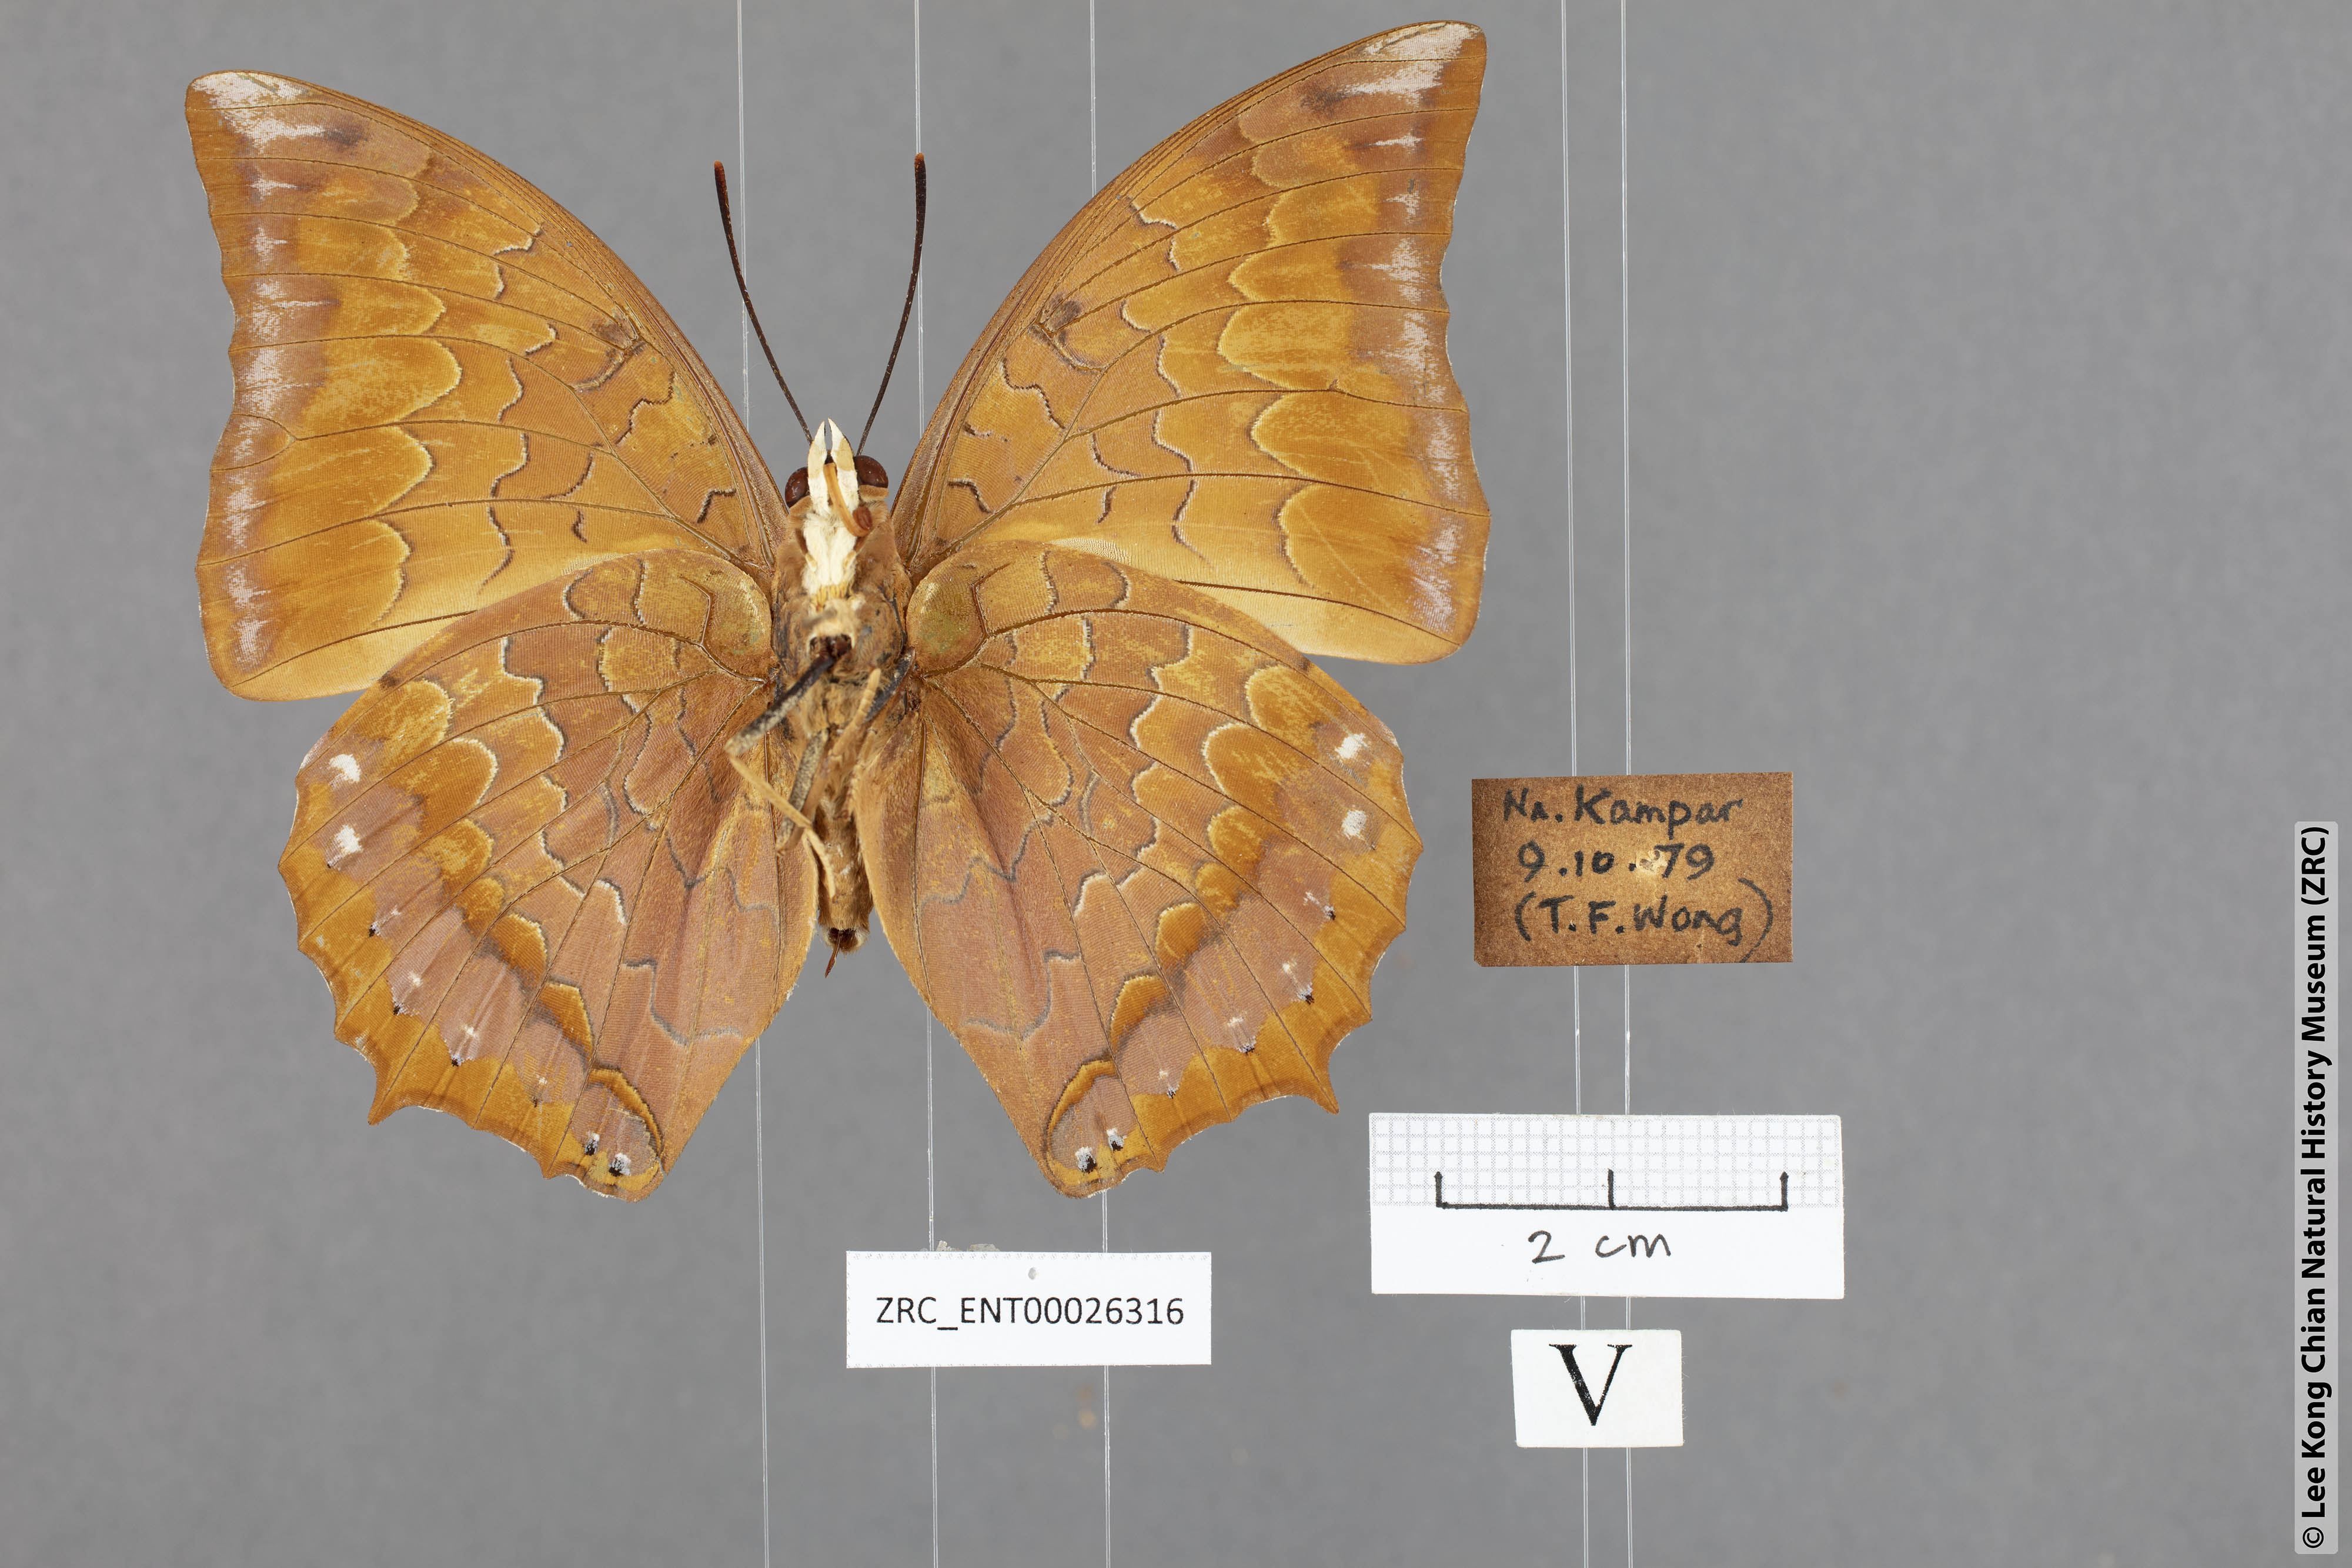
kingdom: Animalia
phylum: Arthropoda
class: Insecta
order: Lepidoptera
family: Nymphalidae
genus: Charaxes
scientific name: Charaxes harmodius
